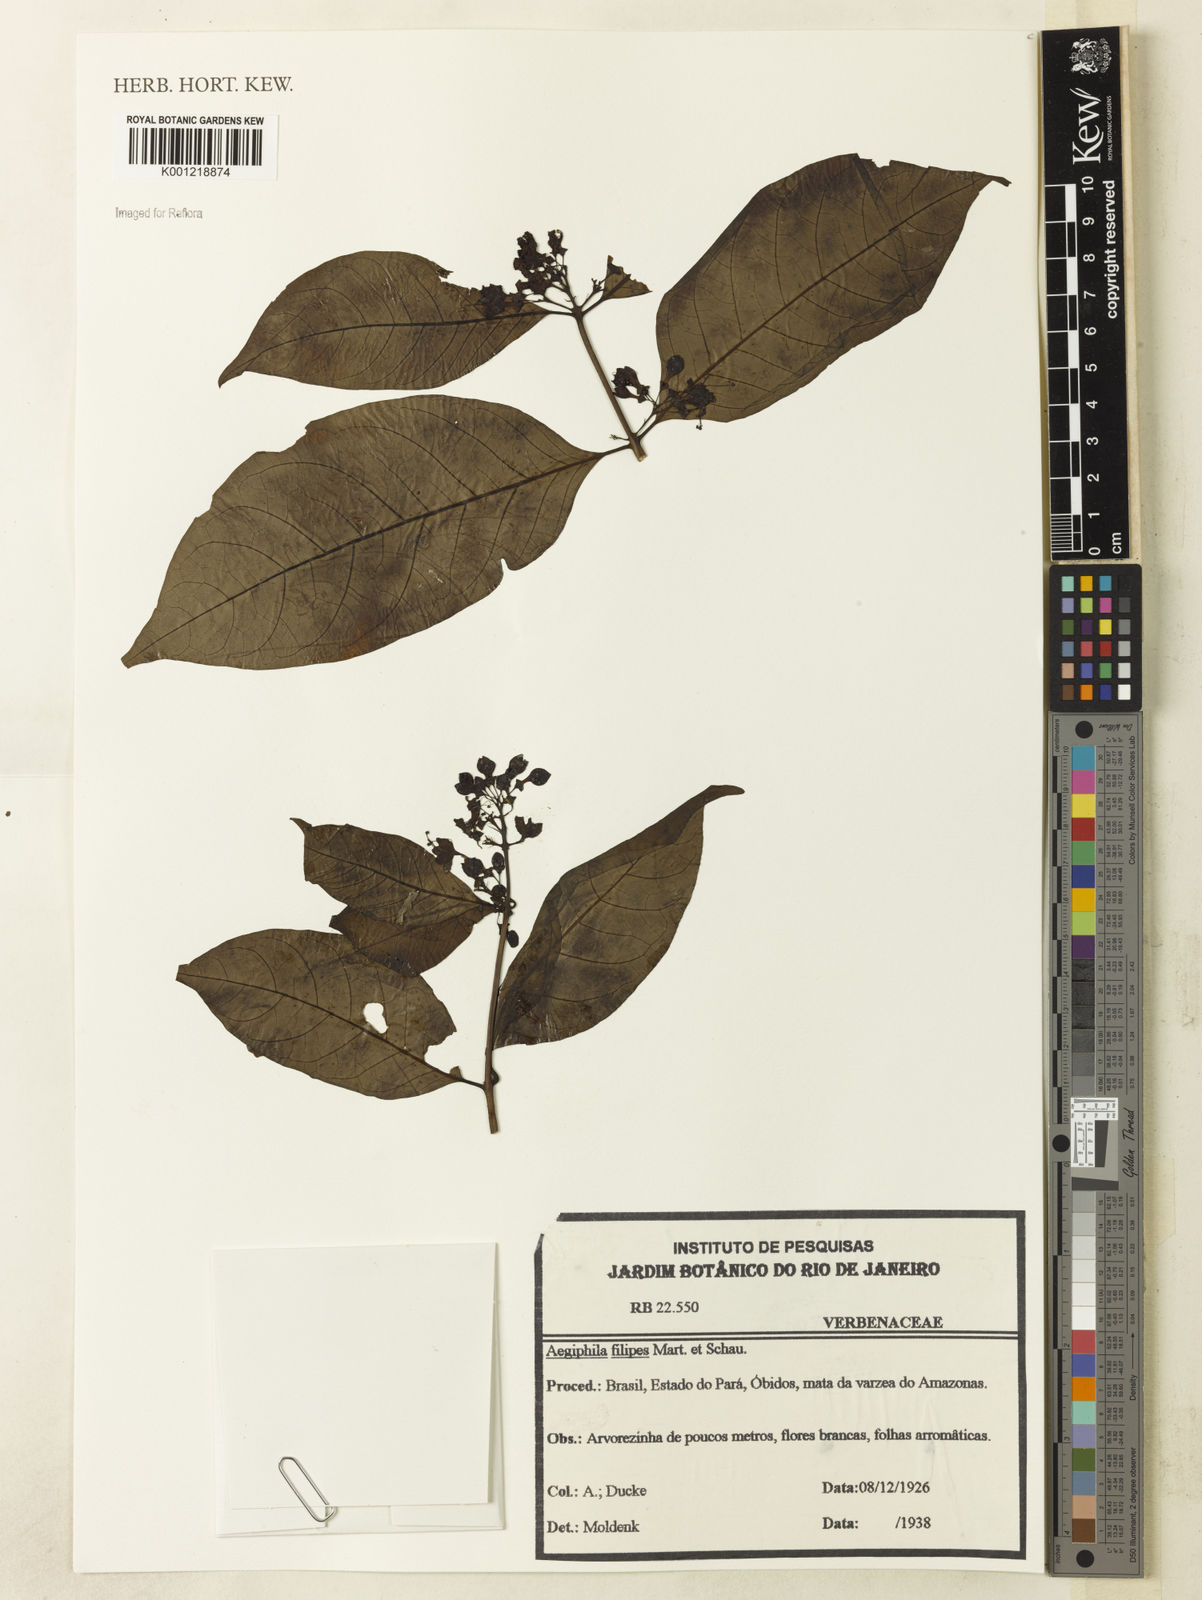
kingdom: Plantae
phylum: Tracheophyta
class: Magnoliopsida
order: Lamiales
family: Lamiaceae
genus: Aegiphila
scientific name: Aegiphila filipes
